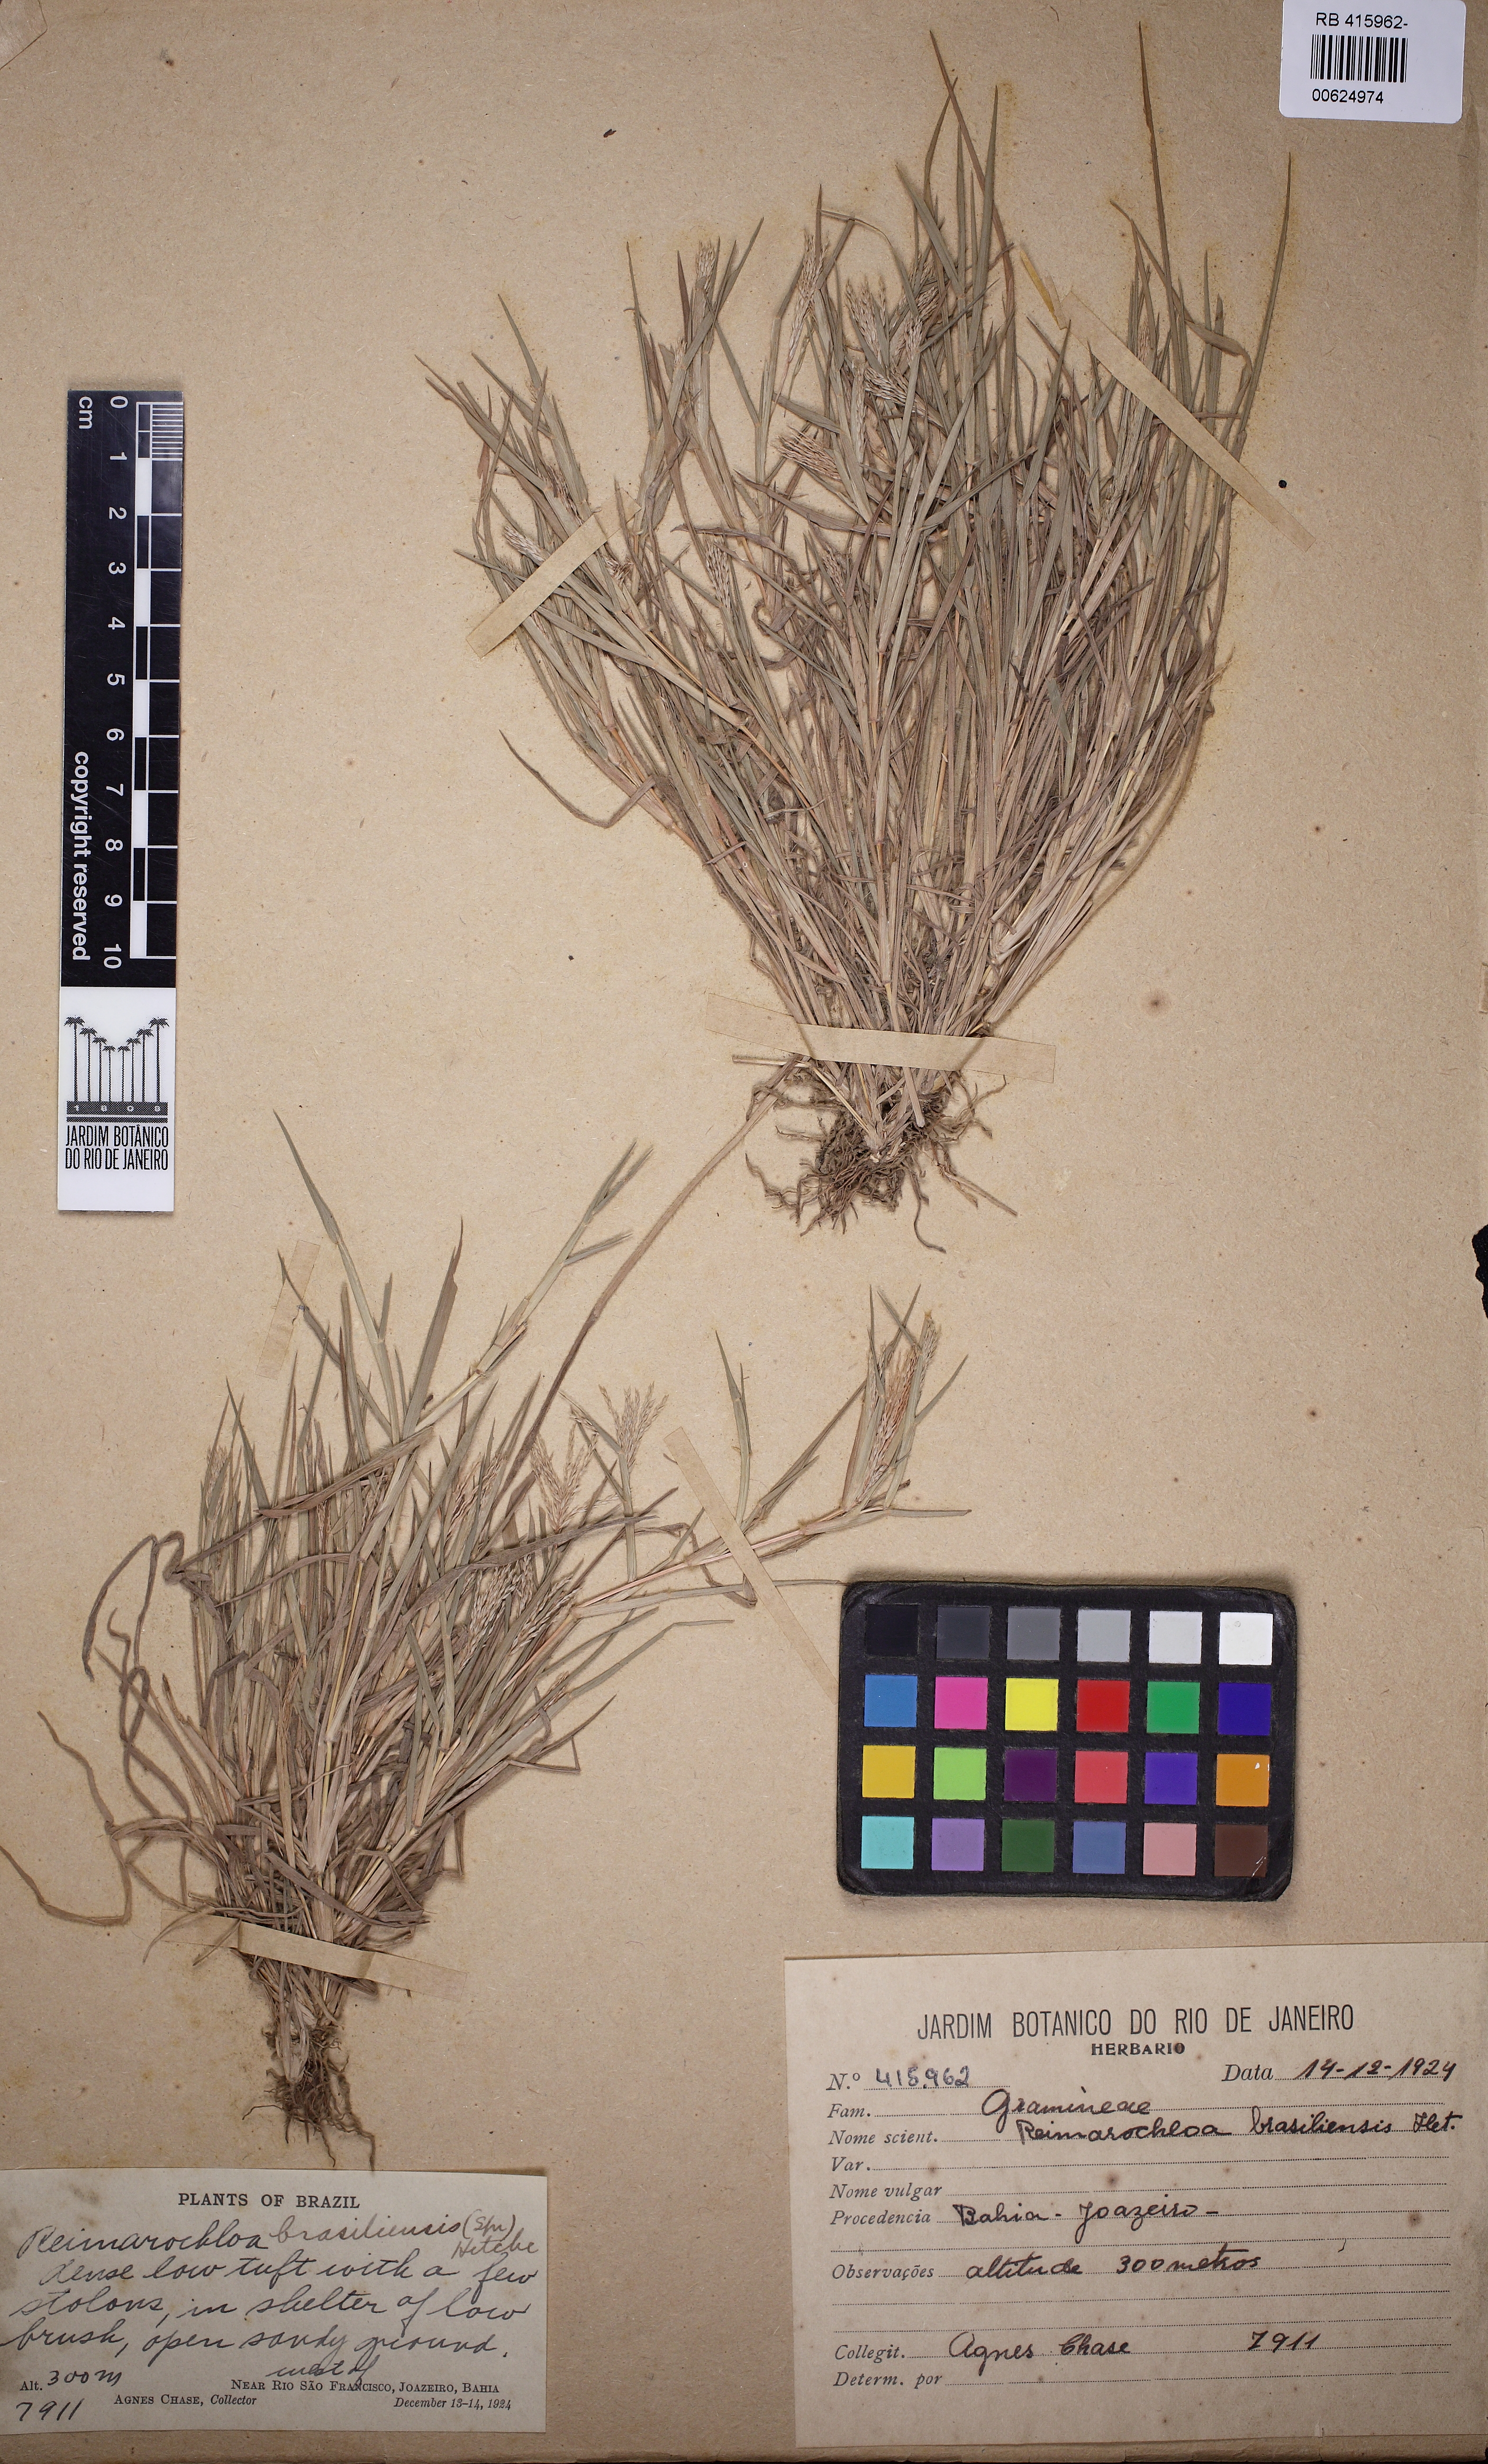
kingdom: Plantae
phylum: Tracheophyta
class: Liliopsida
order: Poales
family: Poaceae
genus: Paspalum
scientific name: Paspalum stagnophilum
